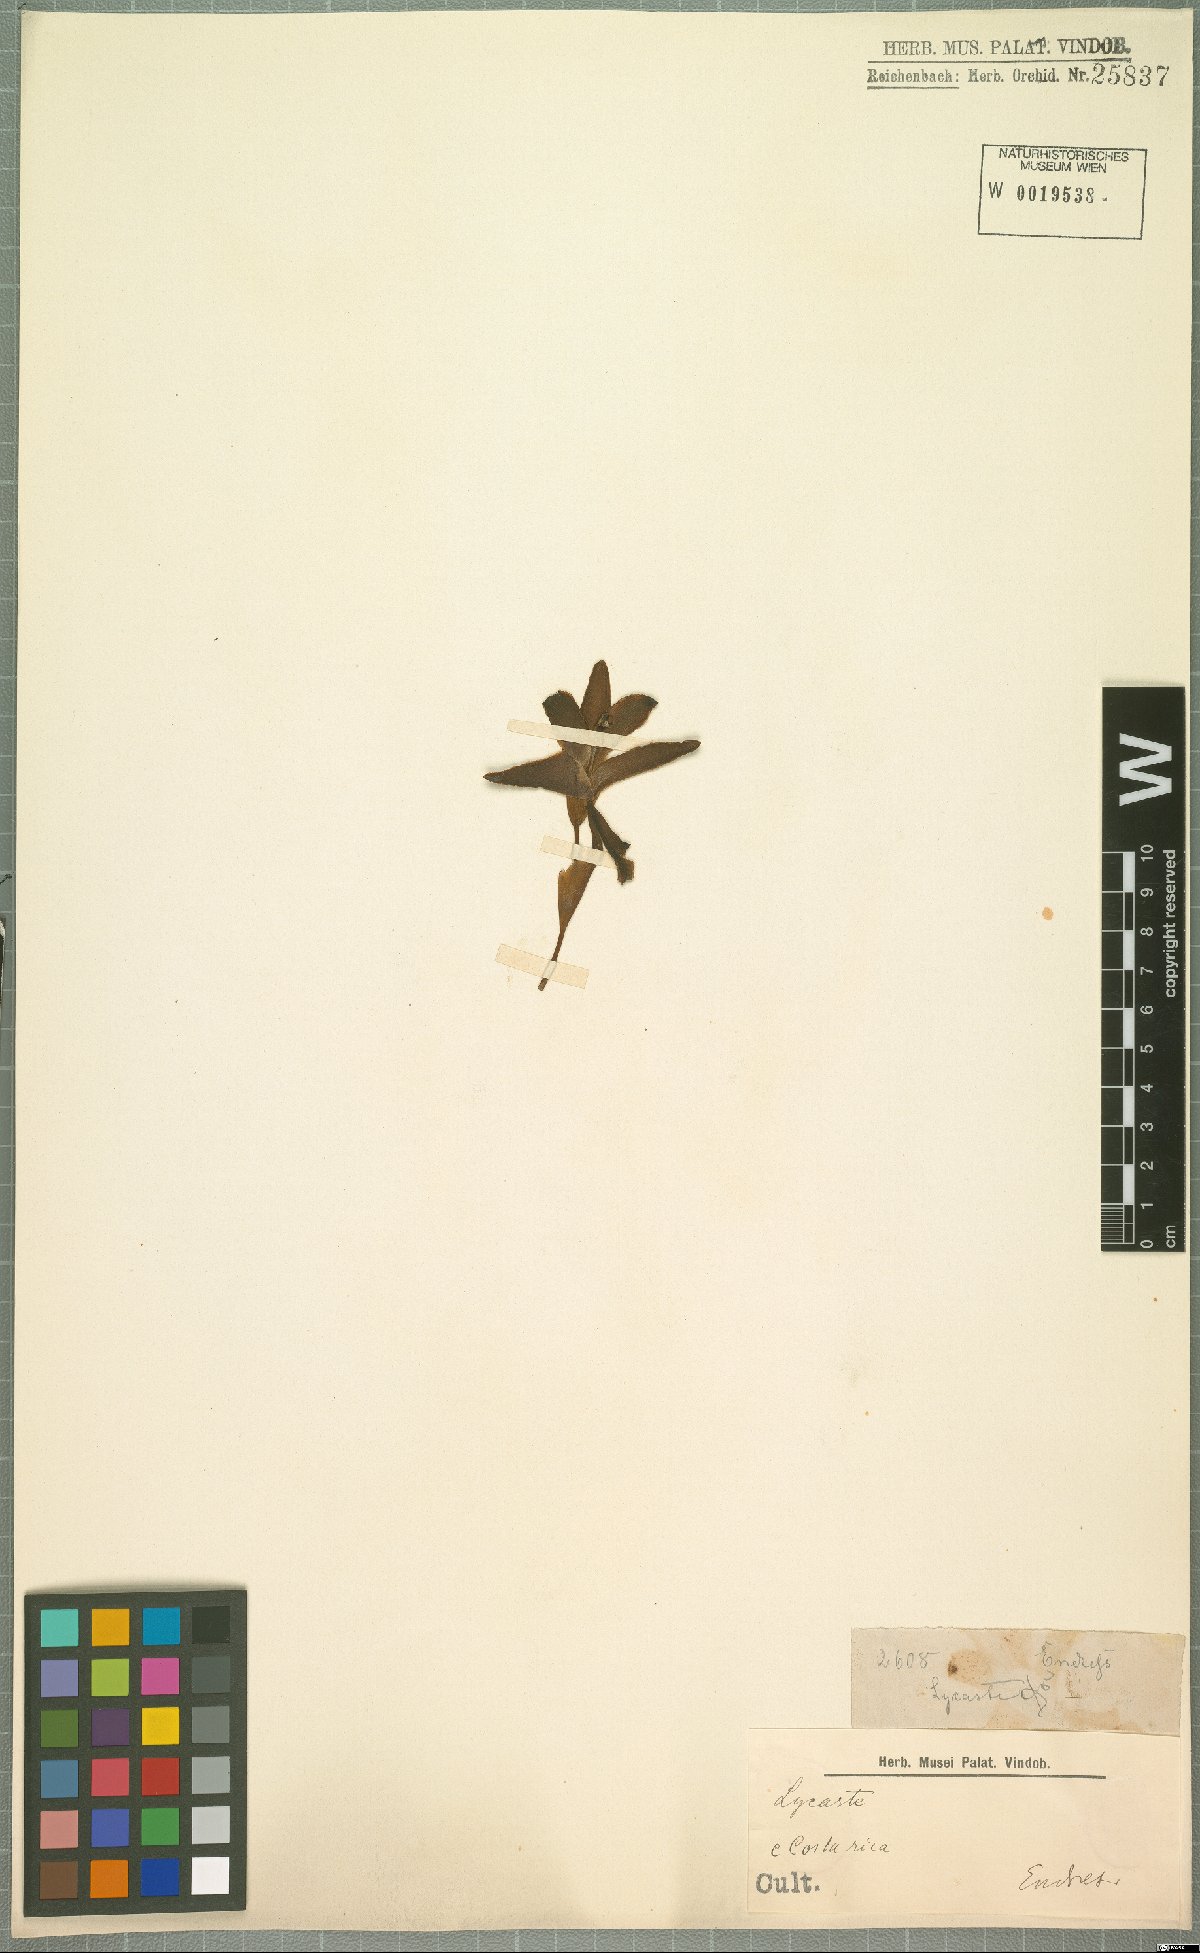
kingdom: Plantae
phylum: Tracheophyta
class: Liliopsida
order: Asparagales
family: Orchidaceae
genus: Lycaste
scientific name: Lycaste
